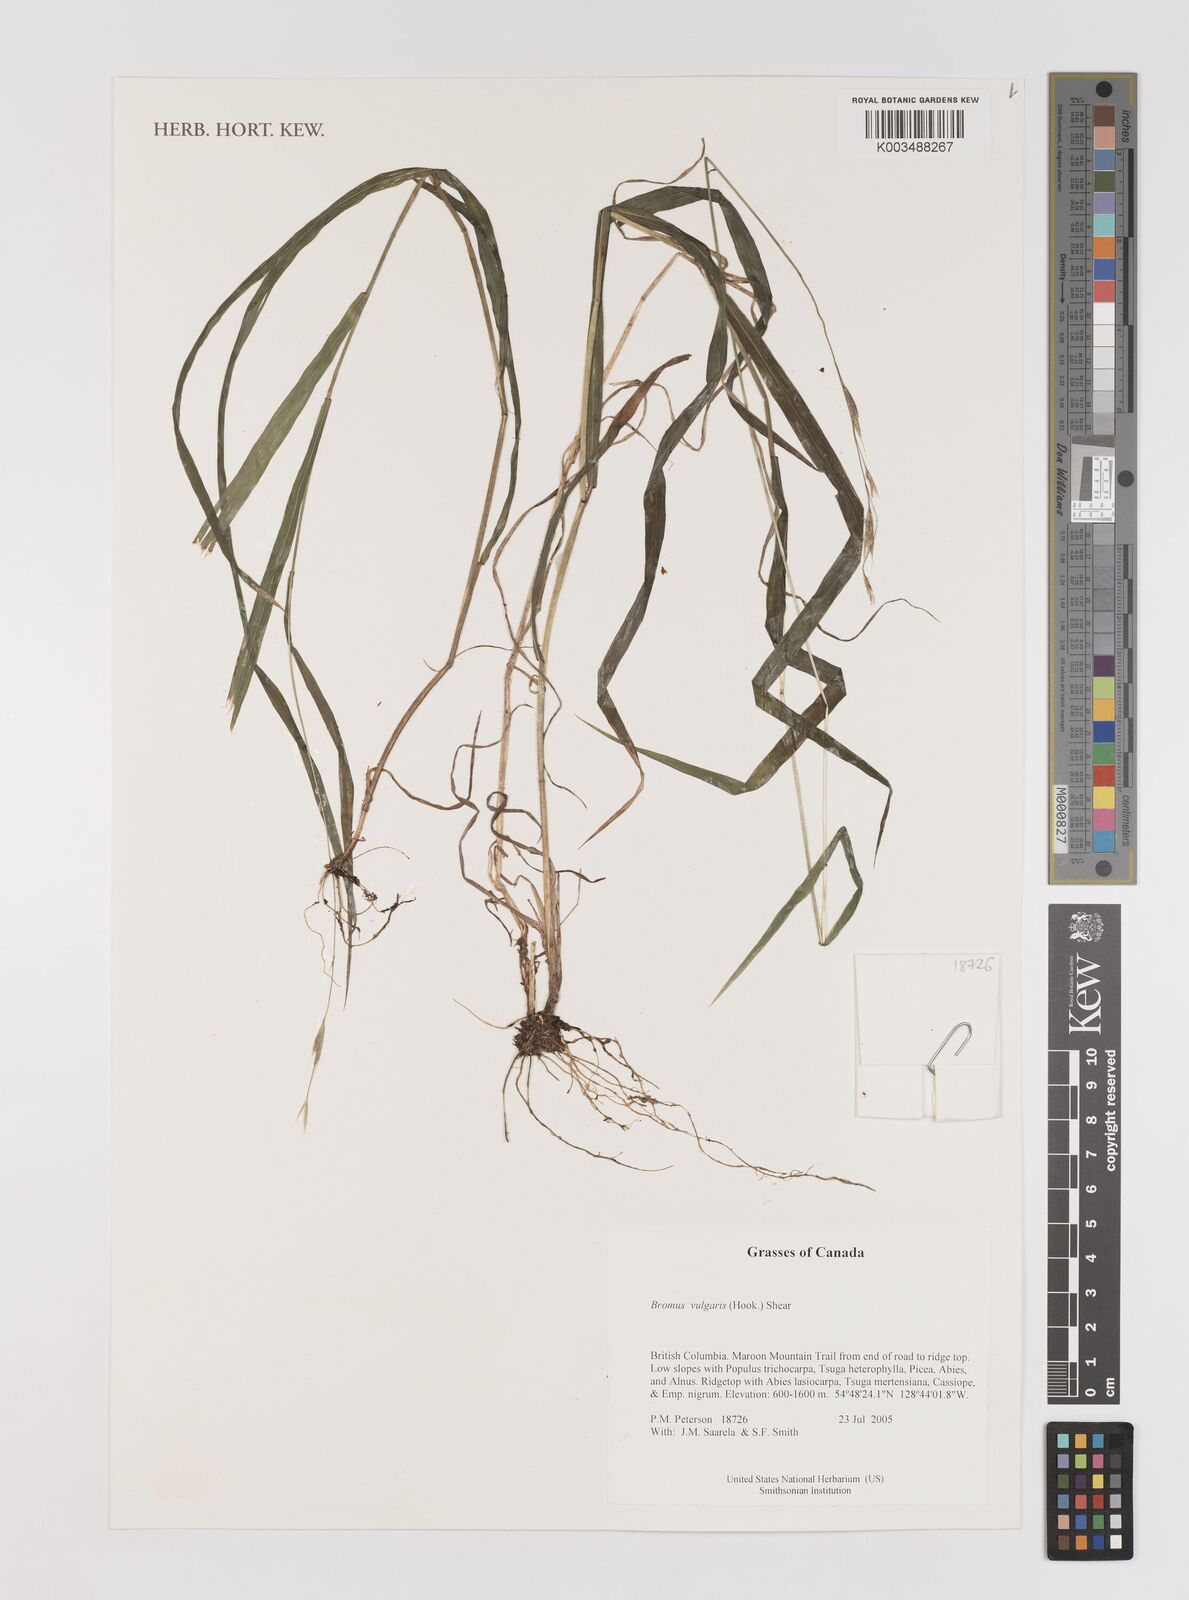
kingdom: Plantae
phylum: Tracheophyta
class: Liliopsida
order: Poales
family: Poaceae
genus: Bromus
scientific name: Bromus vulgaris
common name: Columbia brome
